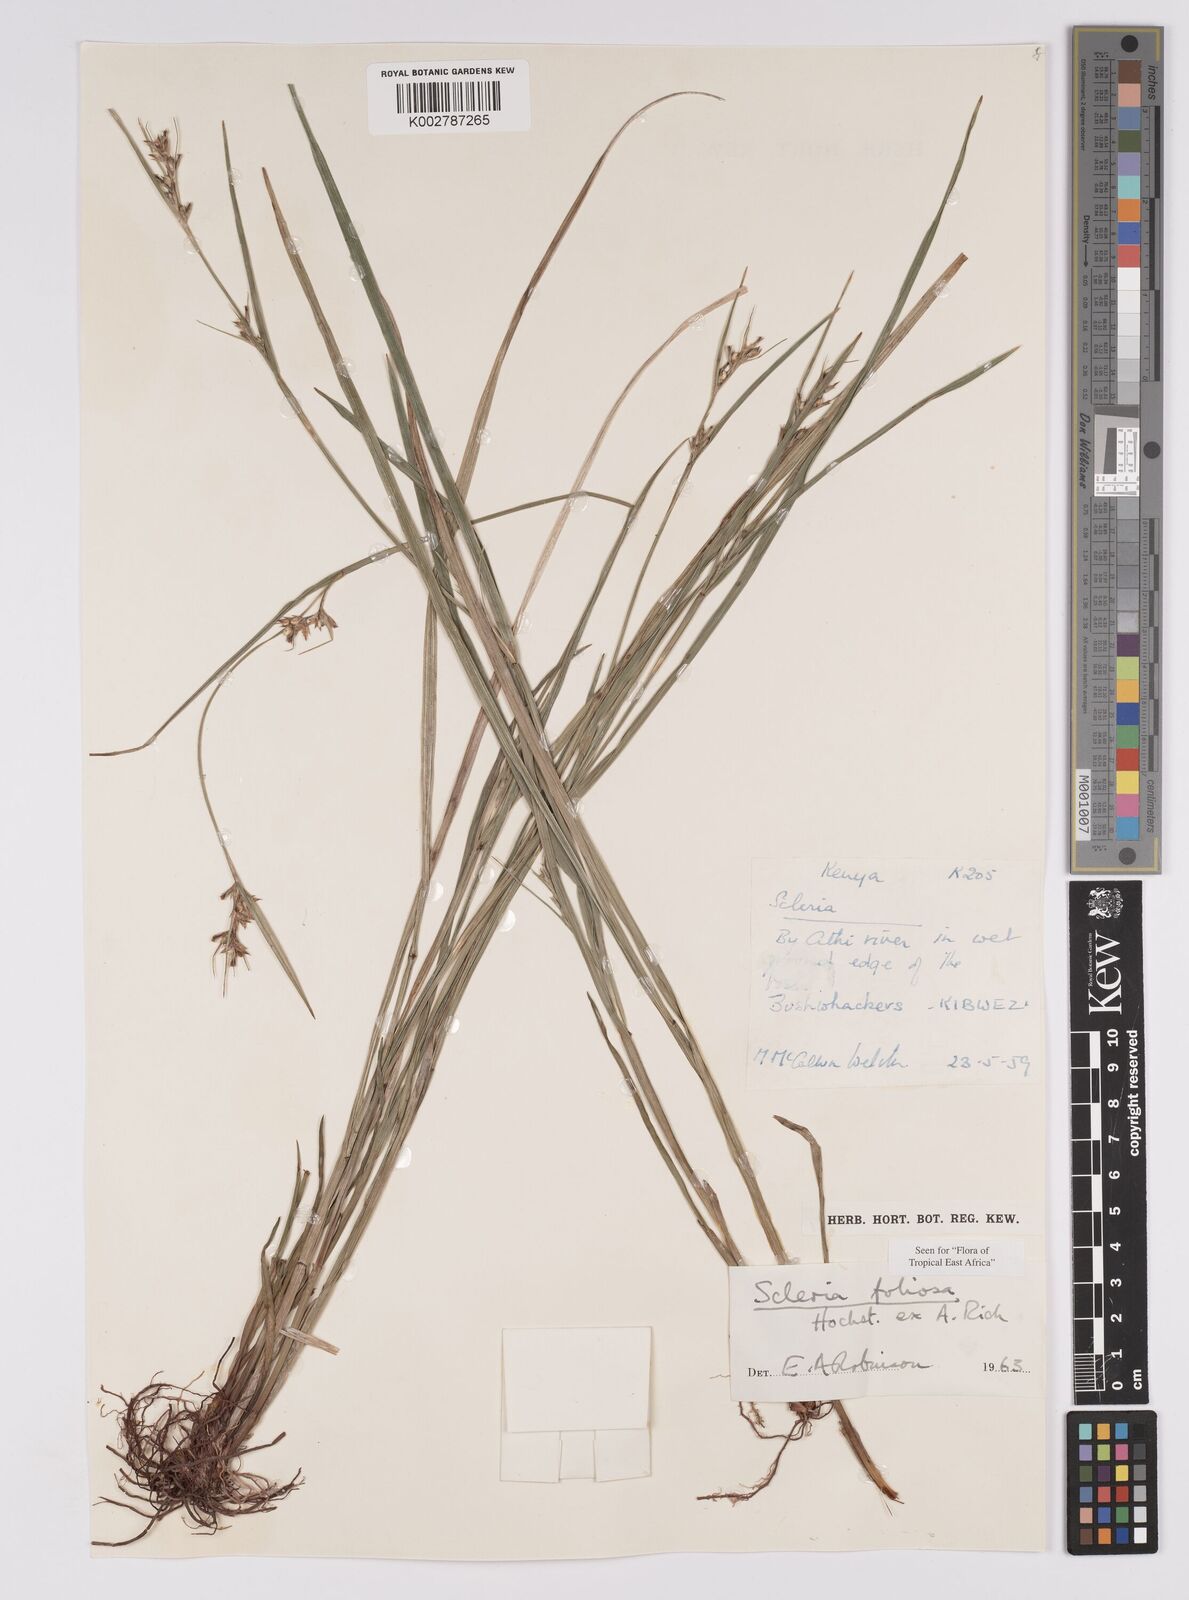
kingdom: Plantae
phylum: Tracheophyta
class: Liliopsida
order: Poales
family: Cyperaceae
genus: Scleria
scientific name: Scleria foliosa
